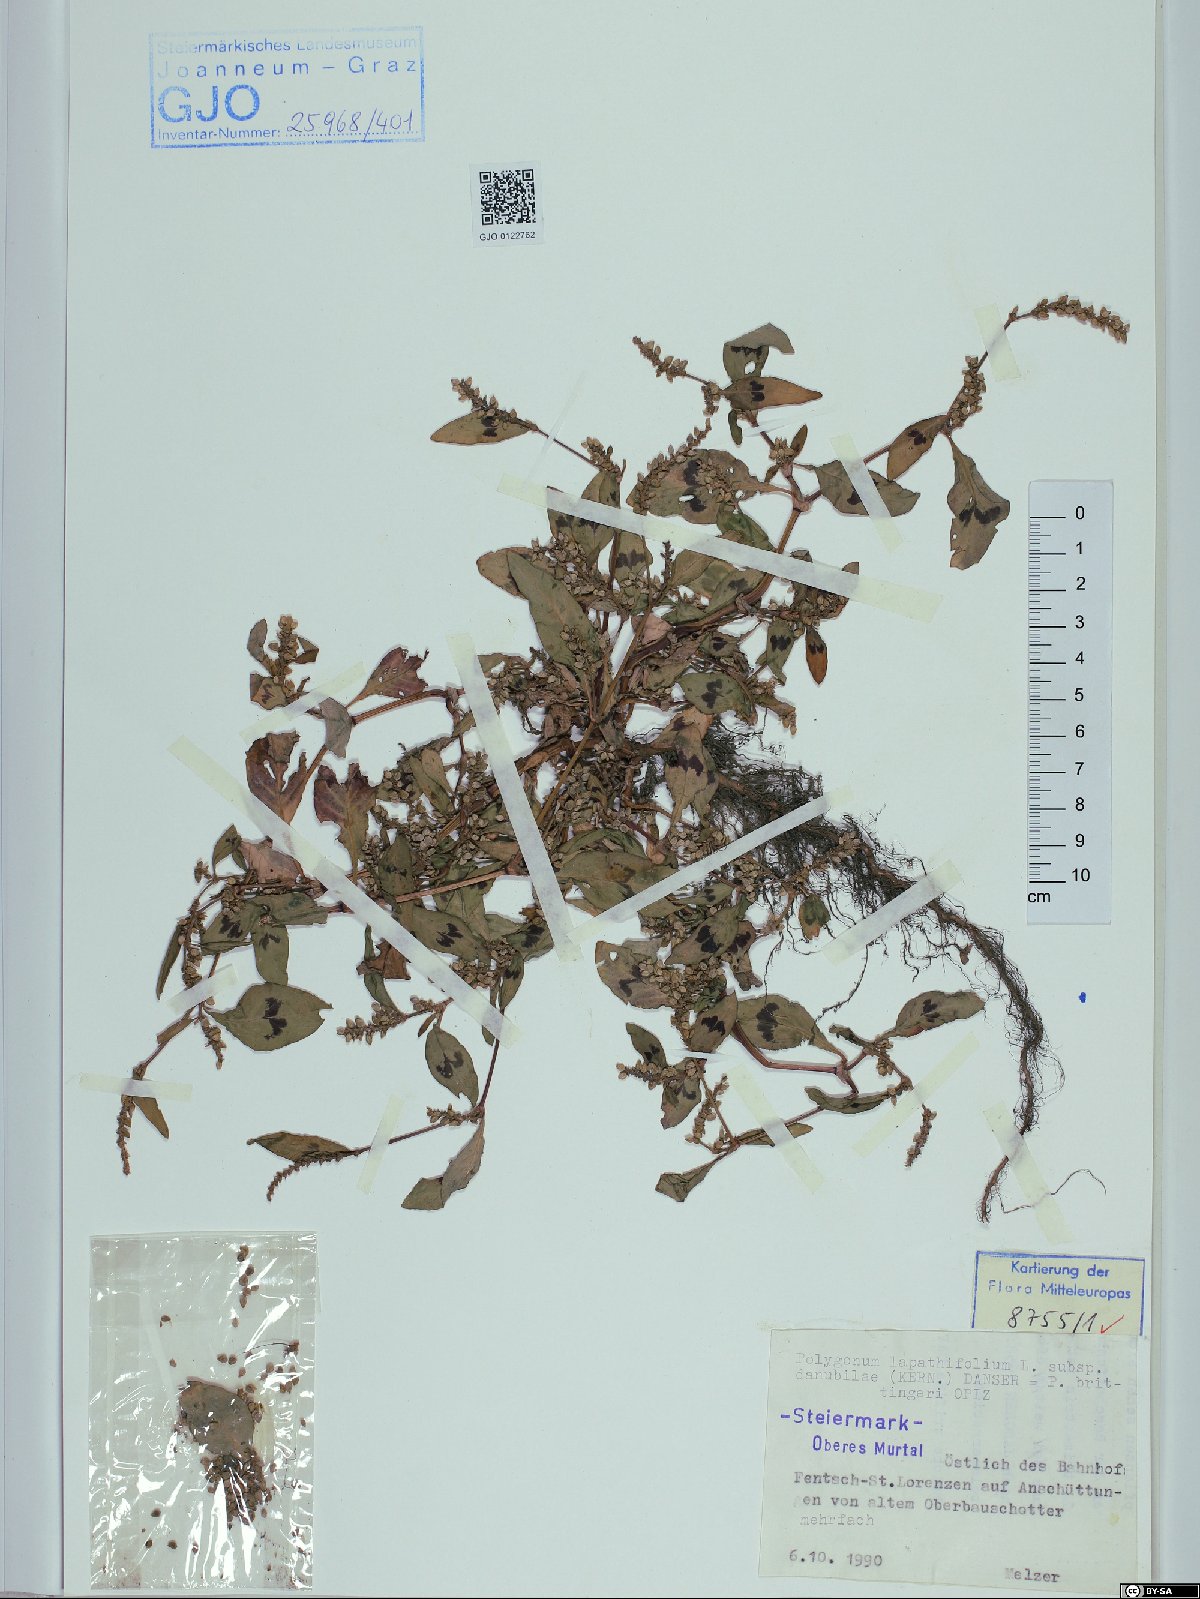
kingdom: Plantae
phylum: Tracheophyta
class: Magnoliopsida
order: Caryophyllales
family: Polygonaceae
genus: Persicaria
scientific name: Persicaria lapathifolia
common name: Curlytop knotweed
